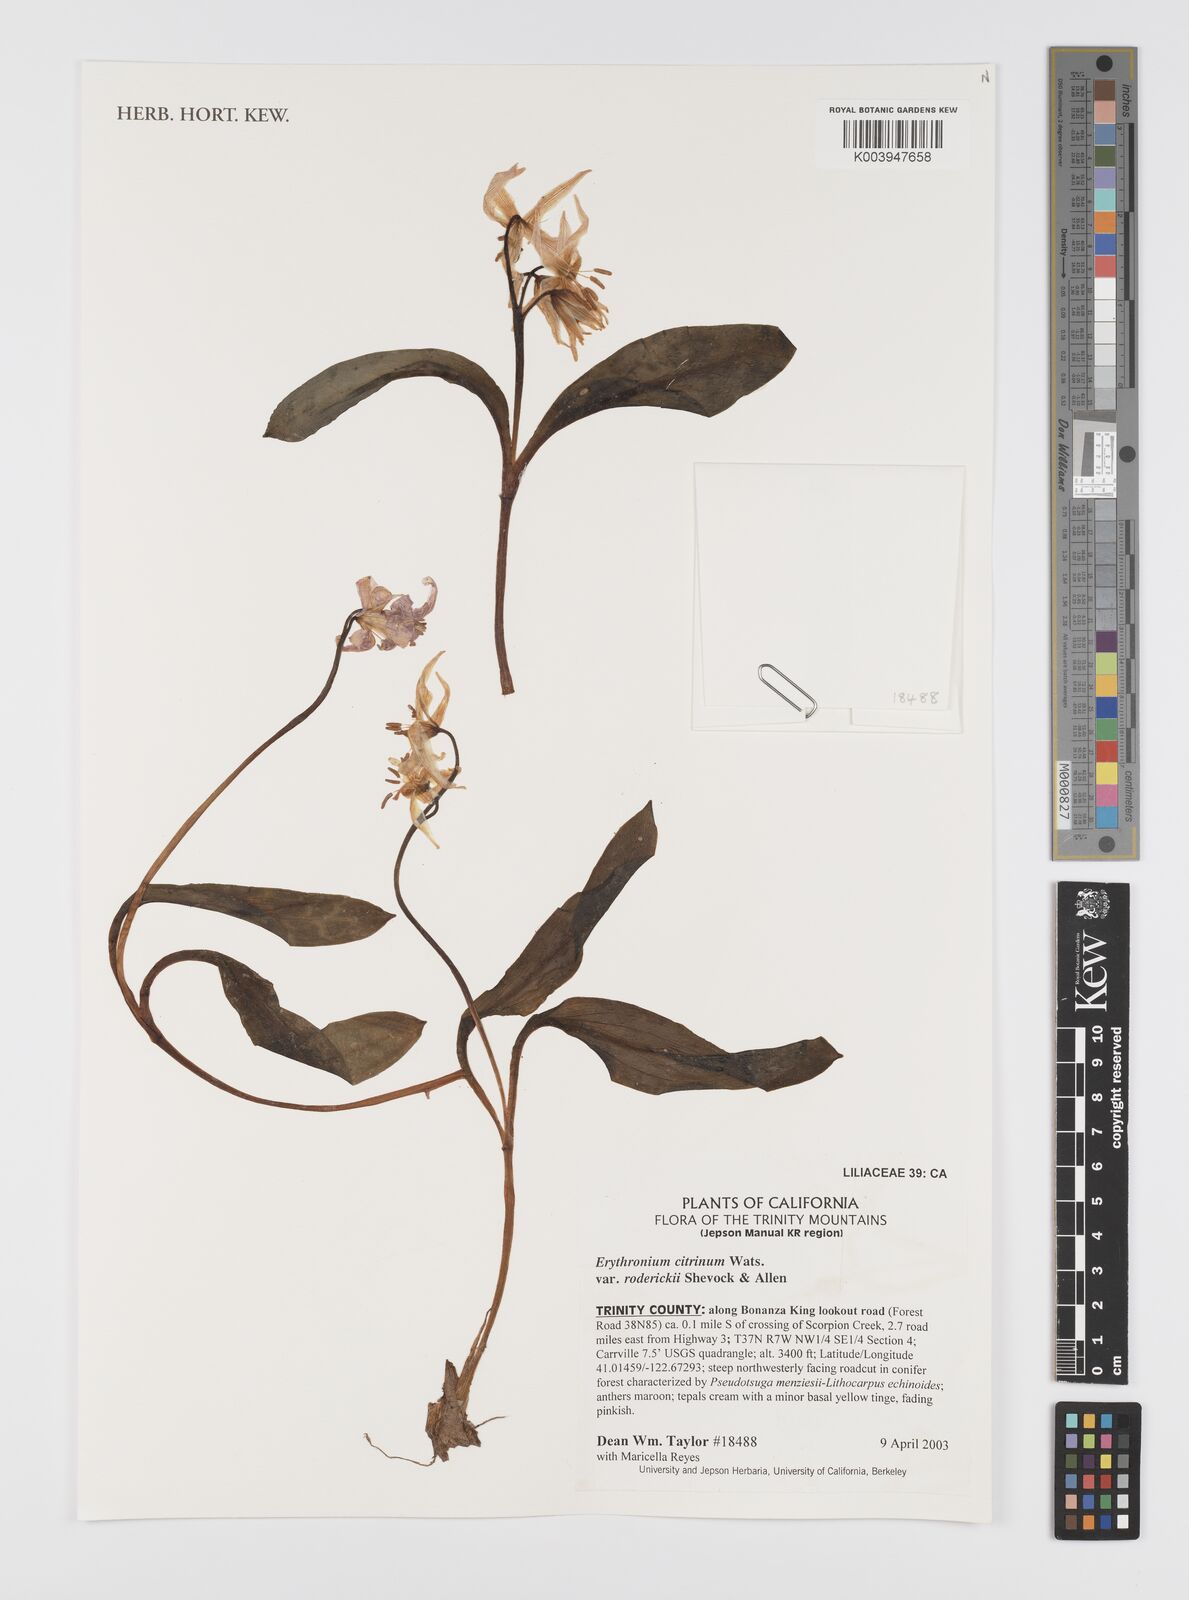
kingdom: Plantae
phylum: Tracheophyta
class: Liliopsida
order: Liliales
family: Liliaceae
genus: Erythronium
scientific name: Erythronium citrinum
